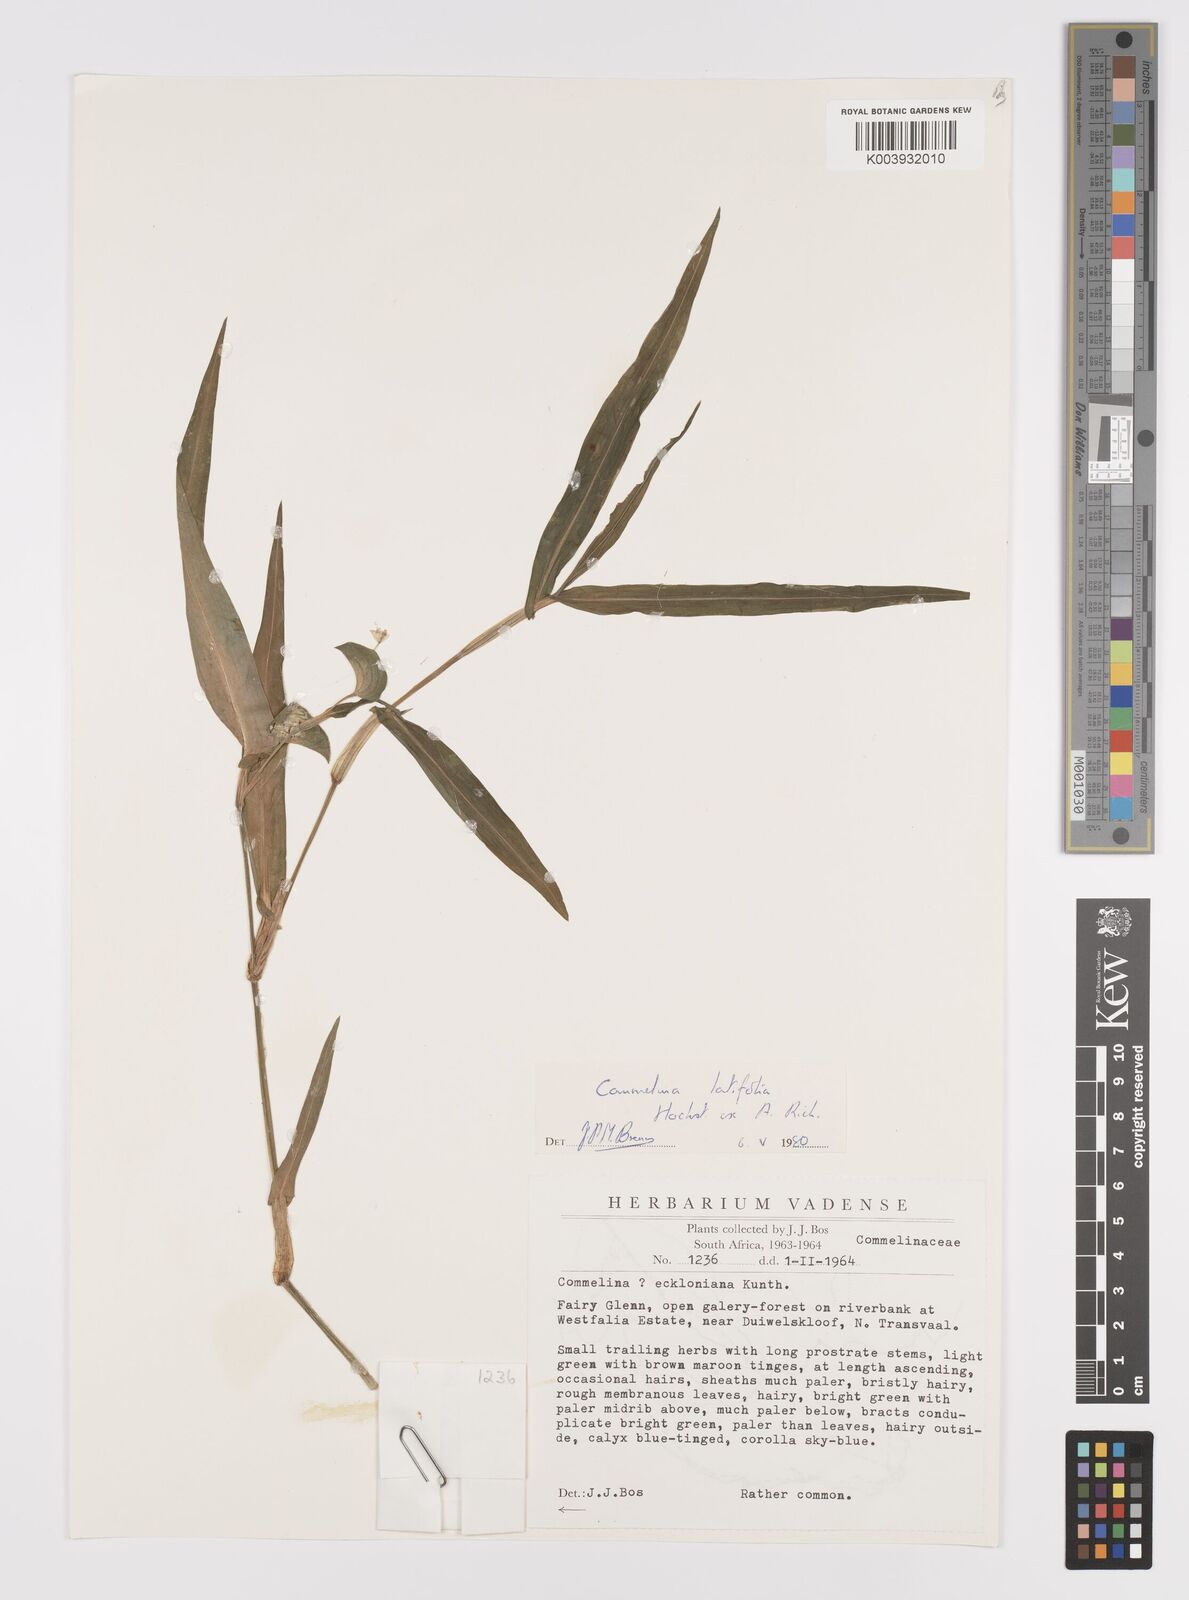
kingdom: Plantae
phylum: Tracheophyta
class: Liliopsida
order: Commelinales
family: Commelinaceae
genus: Commelina
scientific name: Commelina latifolia
